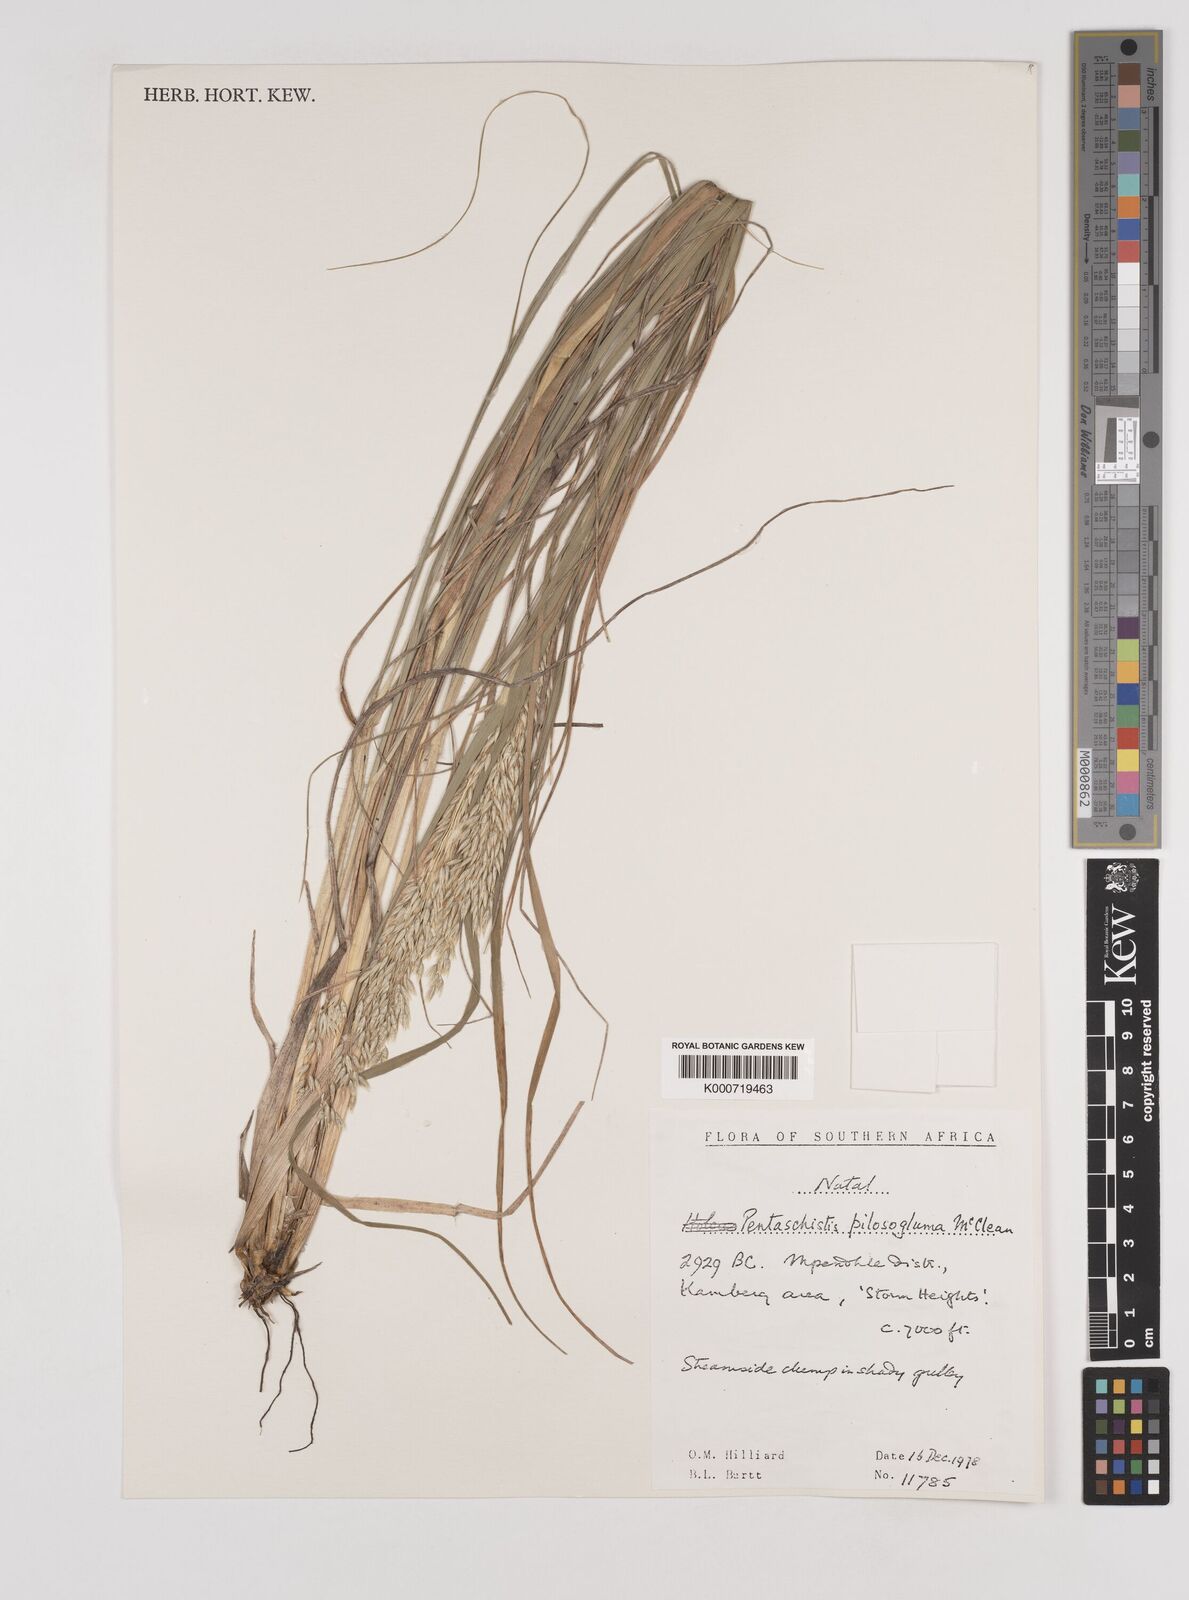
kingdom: Plantae
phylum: Tracheophyta
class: Liliopsida
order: Poales
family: Poaceae
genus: Pentameris
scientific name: Pentameris aurea
